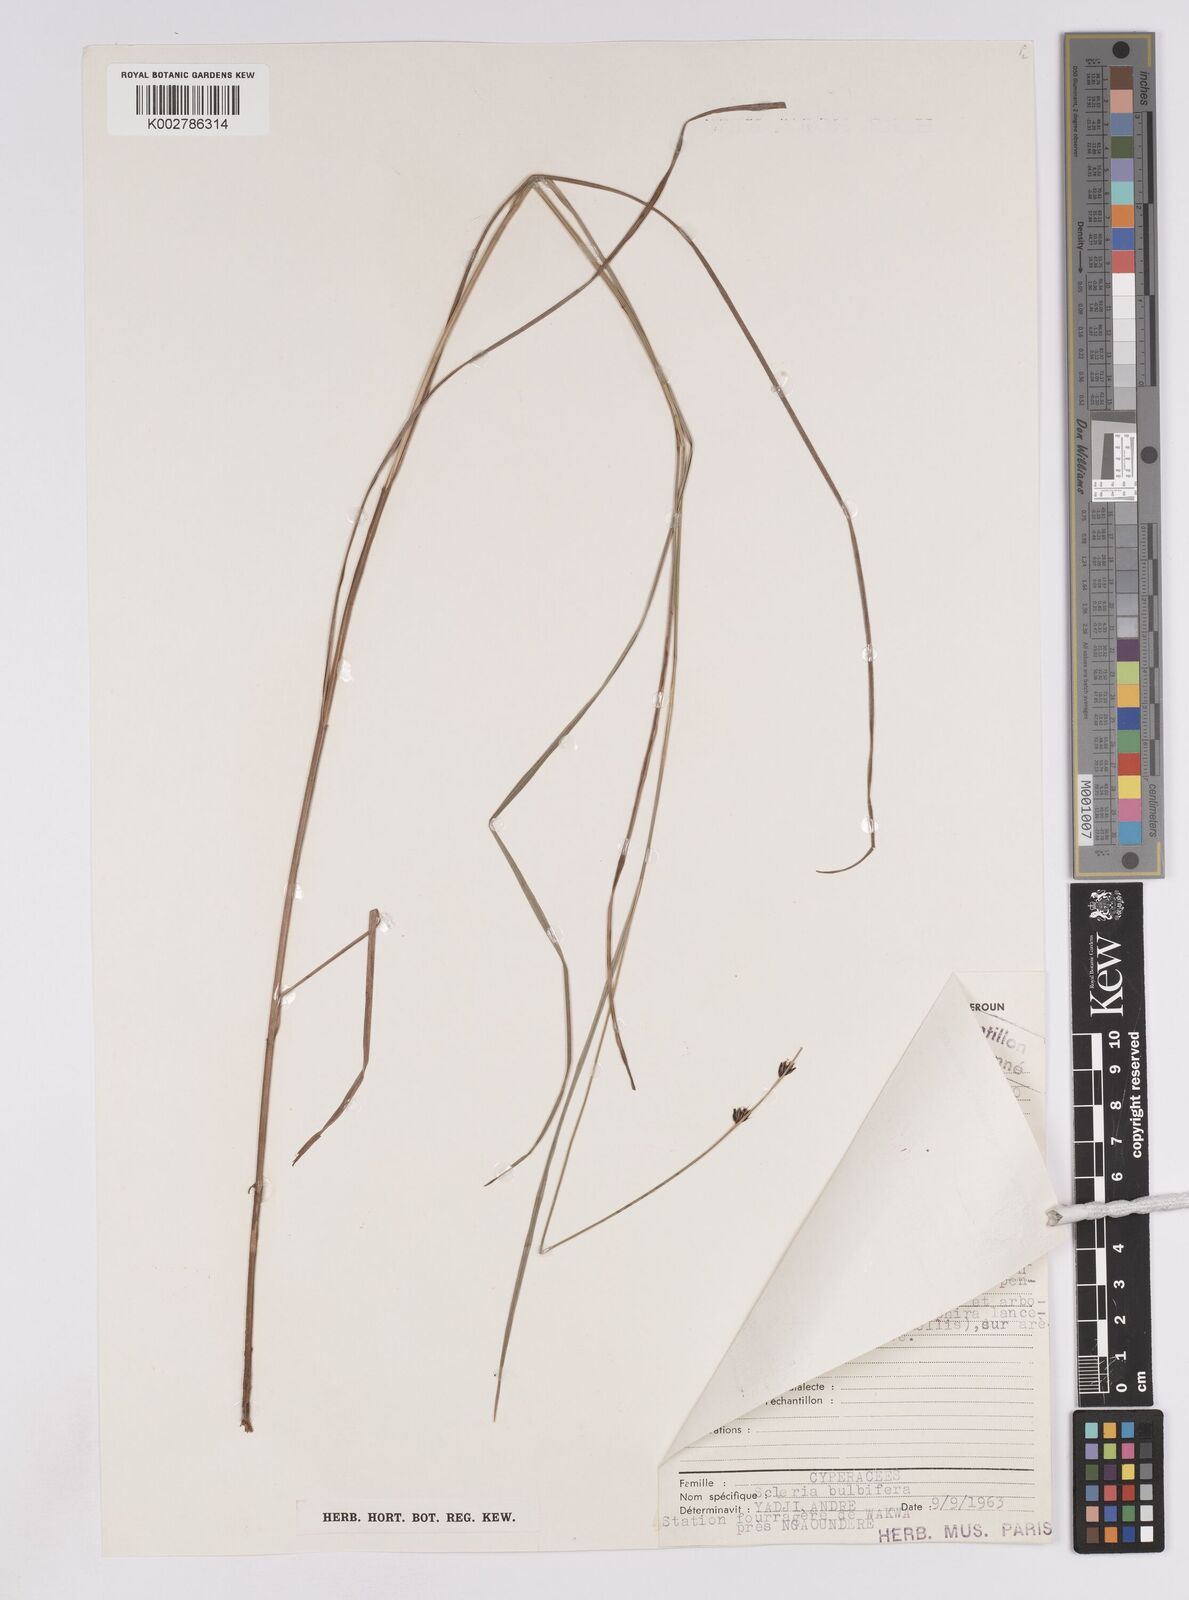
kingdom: Plantae
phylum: Tracheophyta
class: Liliopsida
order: Poales
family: Cyperaceae
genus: Scleria
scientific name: Scleria bulbifera
